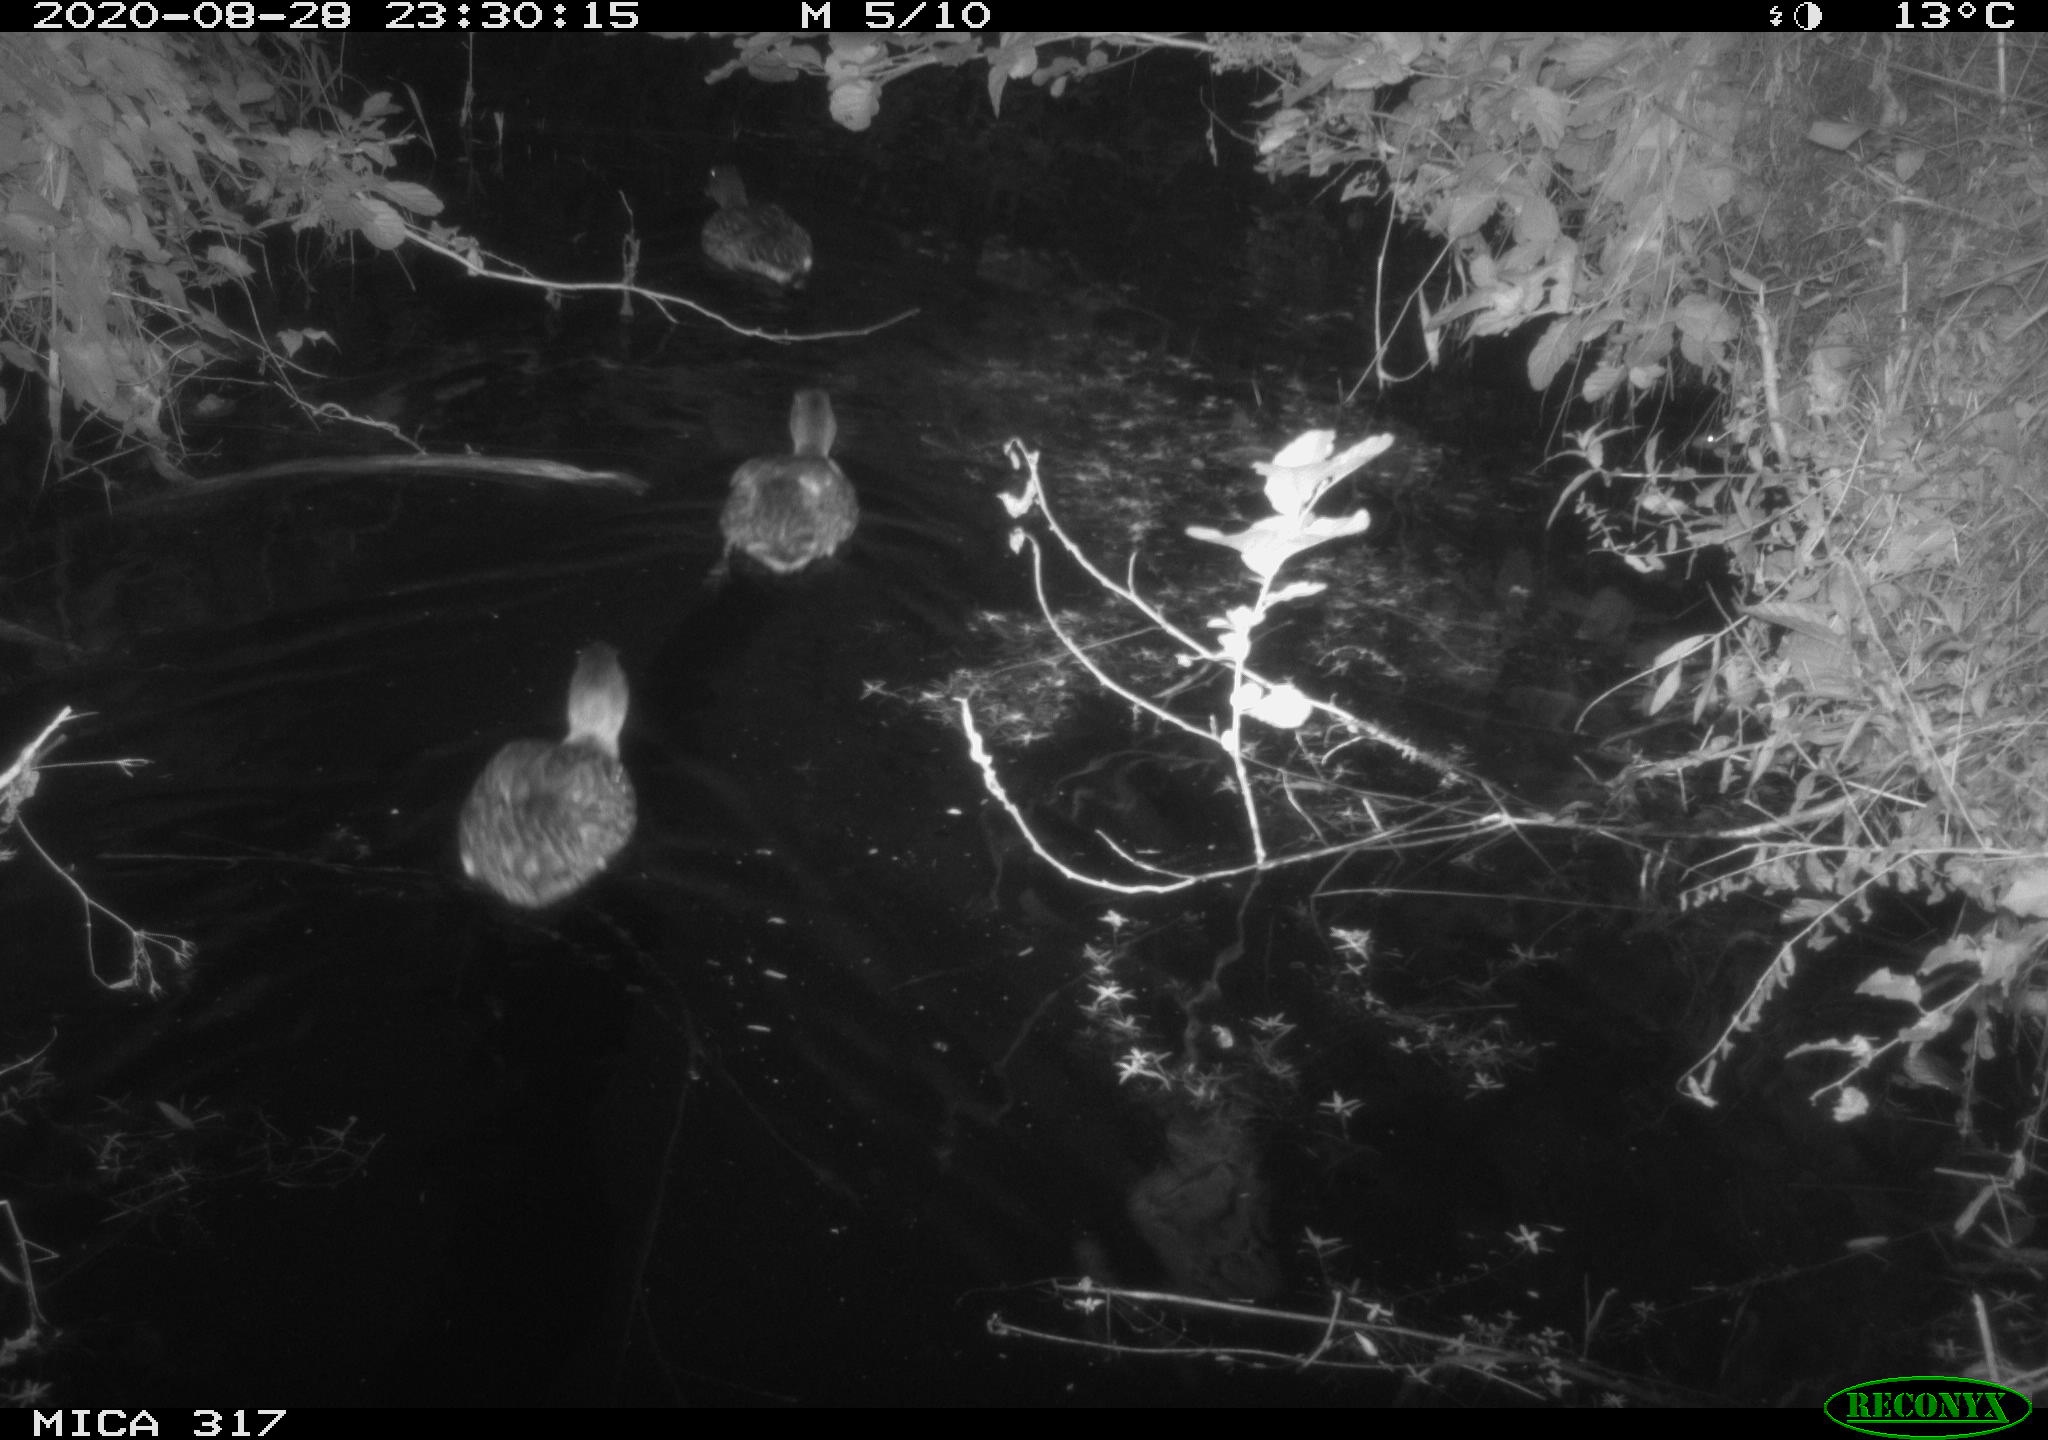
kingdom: Animalia
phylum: Chordata
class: Aves
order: Anseriformes
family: Anatidae
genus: Anas
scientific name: Anas platyrhynchos
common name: Mallard
